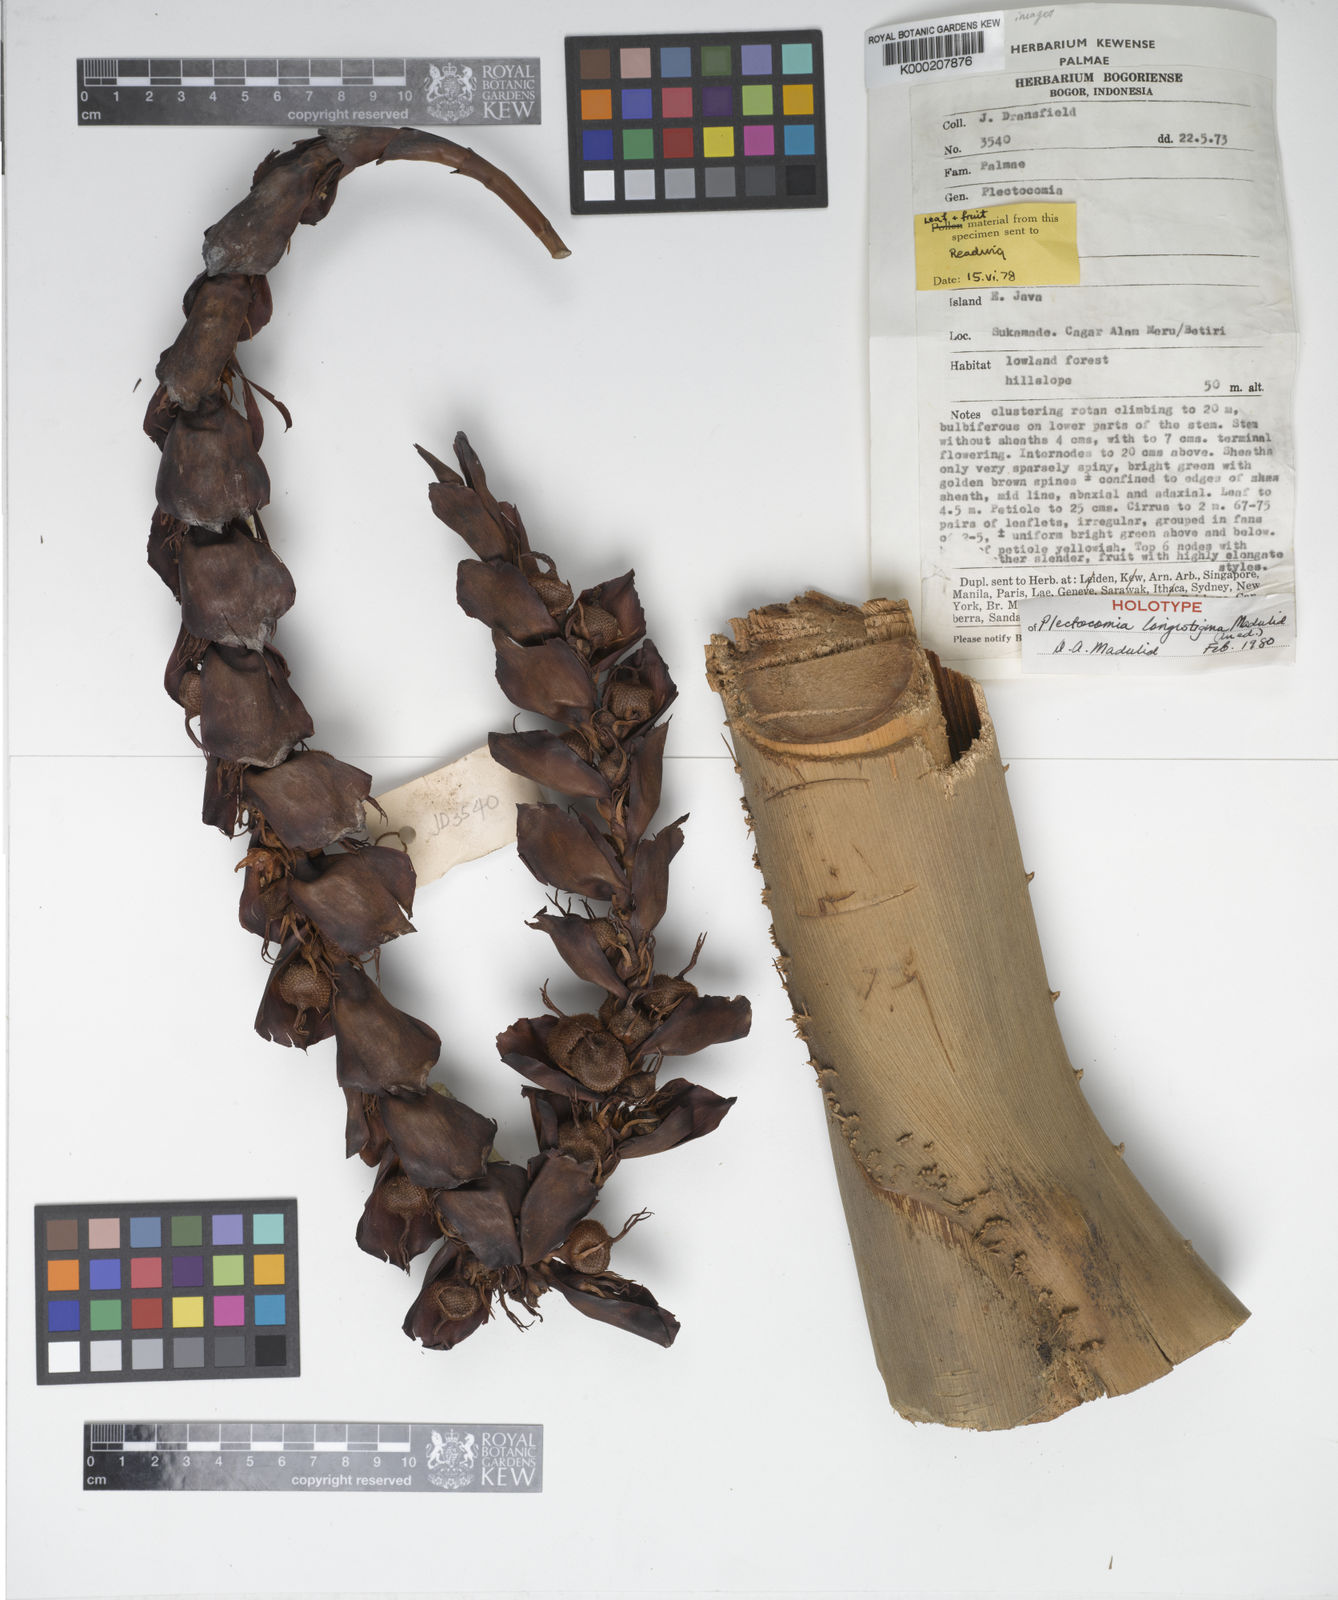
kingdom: Plantae
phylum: Tracheophyta
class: Liliopsida
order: Arecales
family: Arecaceae
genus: Plectocomia
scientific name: Plectocomia longistigma
